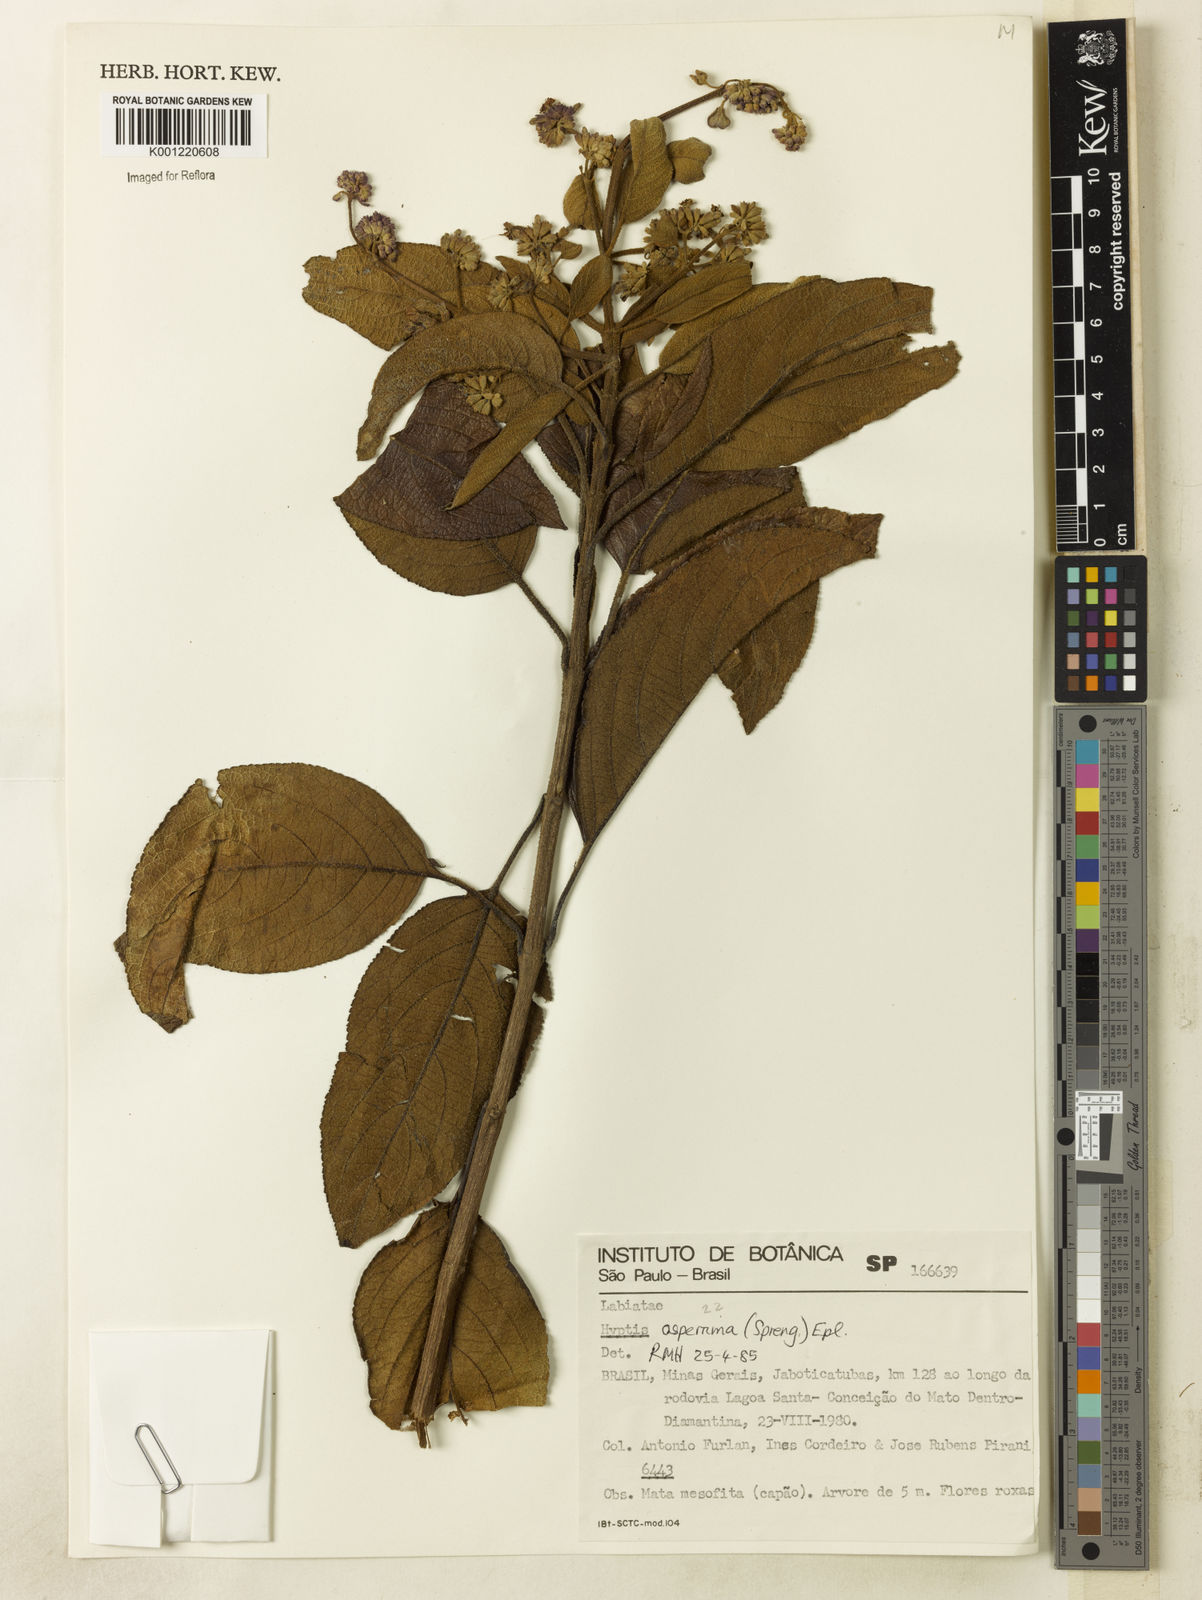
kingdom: Plantae
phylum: Tracheophyta
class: Magnoliopsida
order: Lamiales
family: Lamiaceae
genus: Hyptidendron
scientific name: Hyptidendron asperrimum
